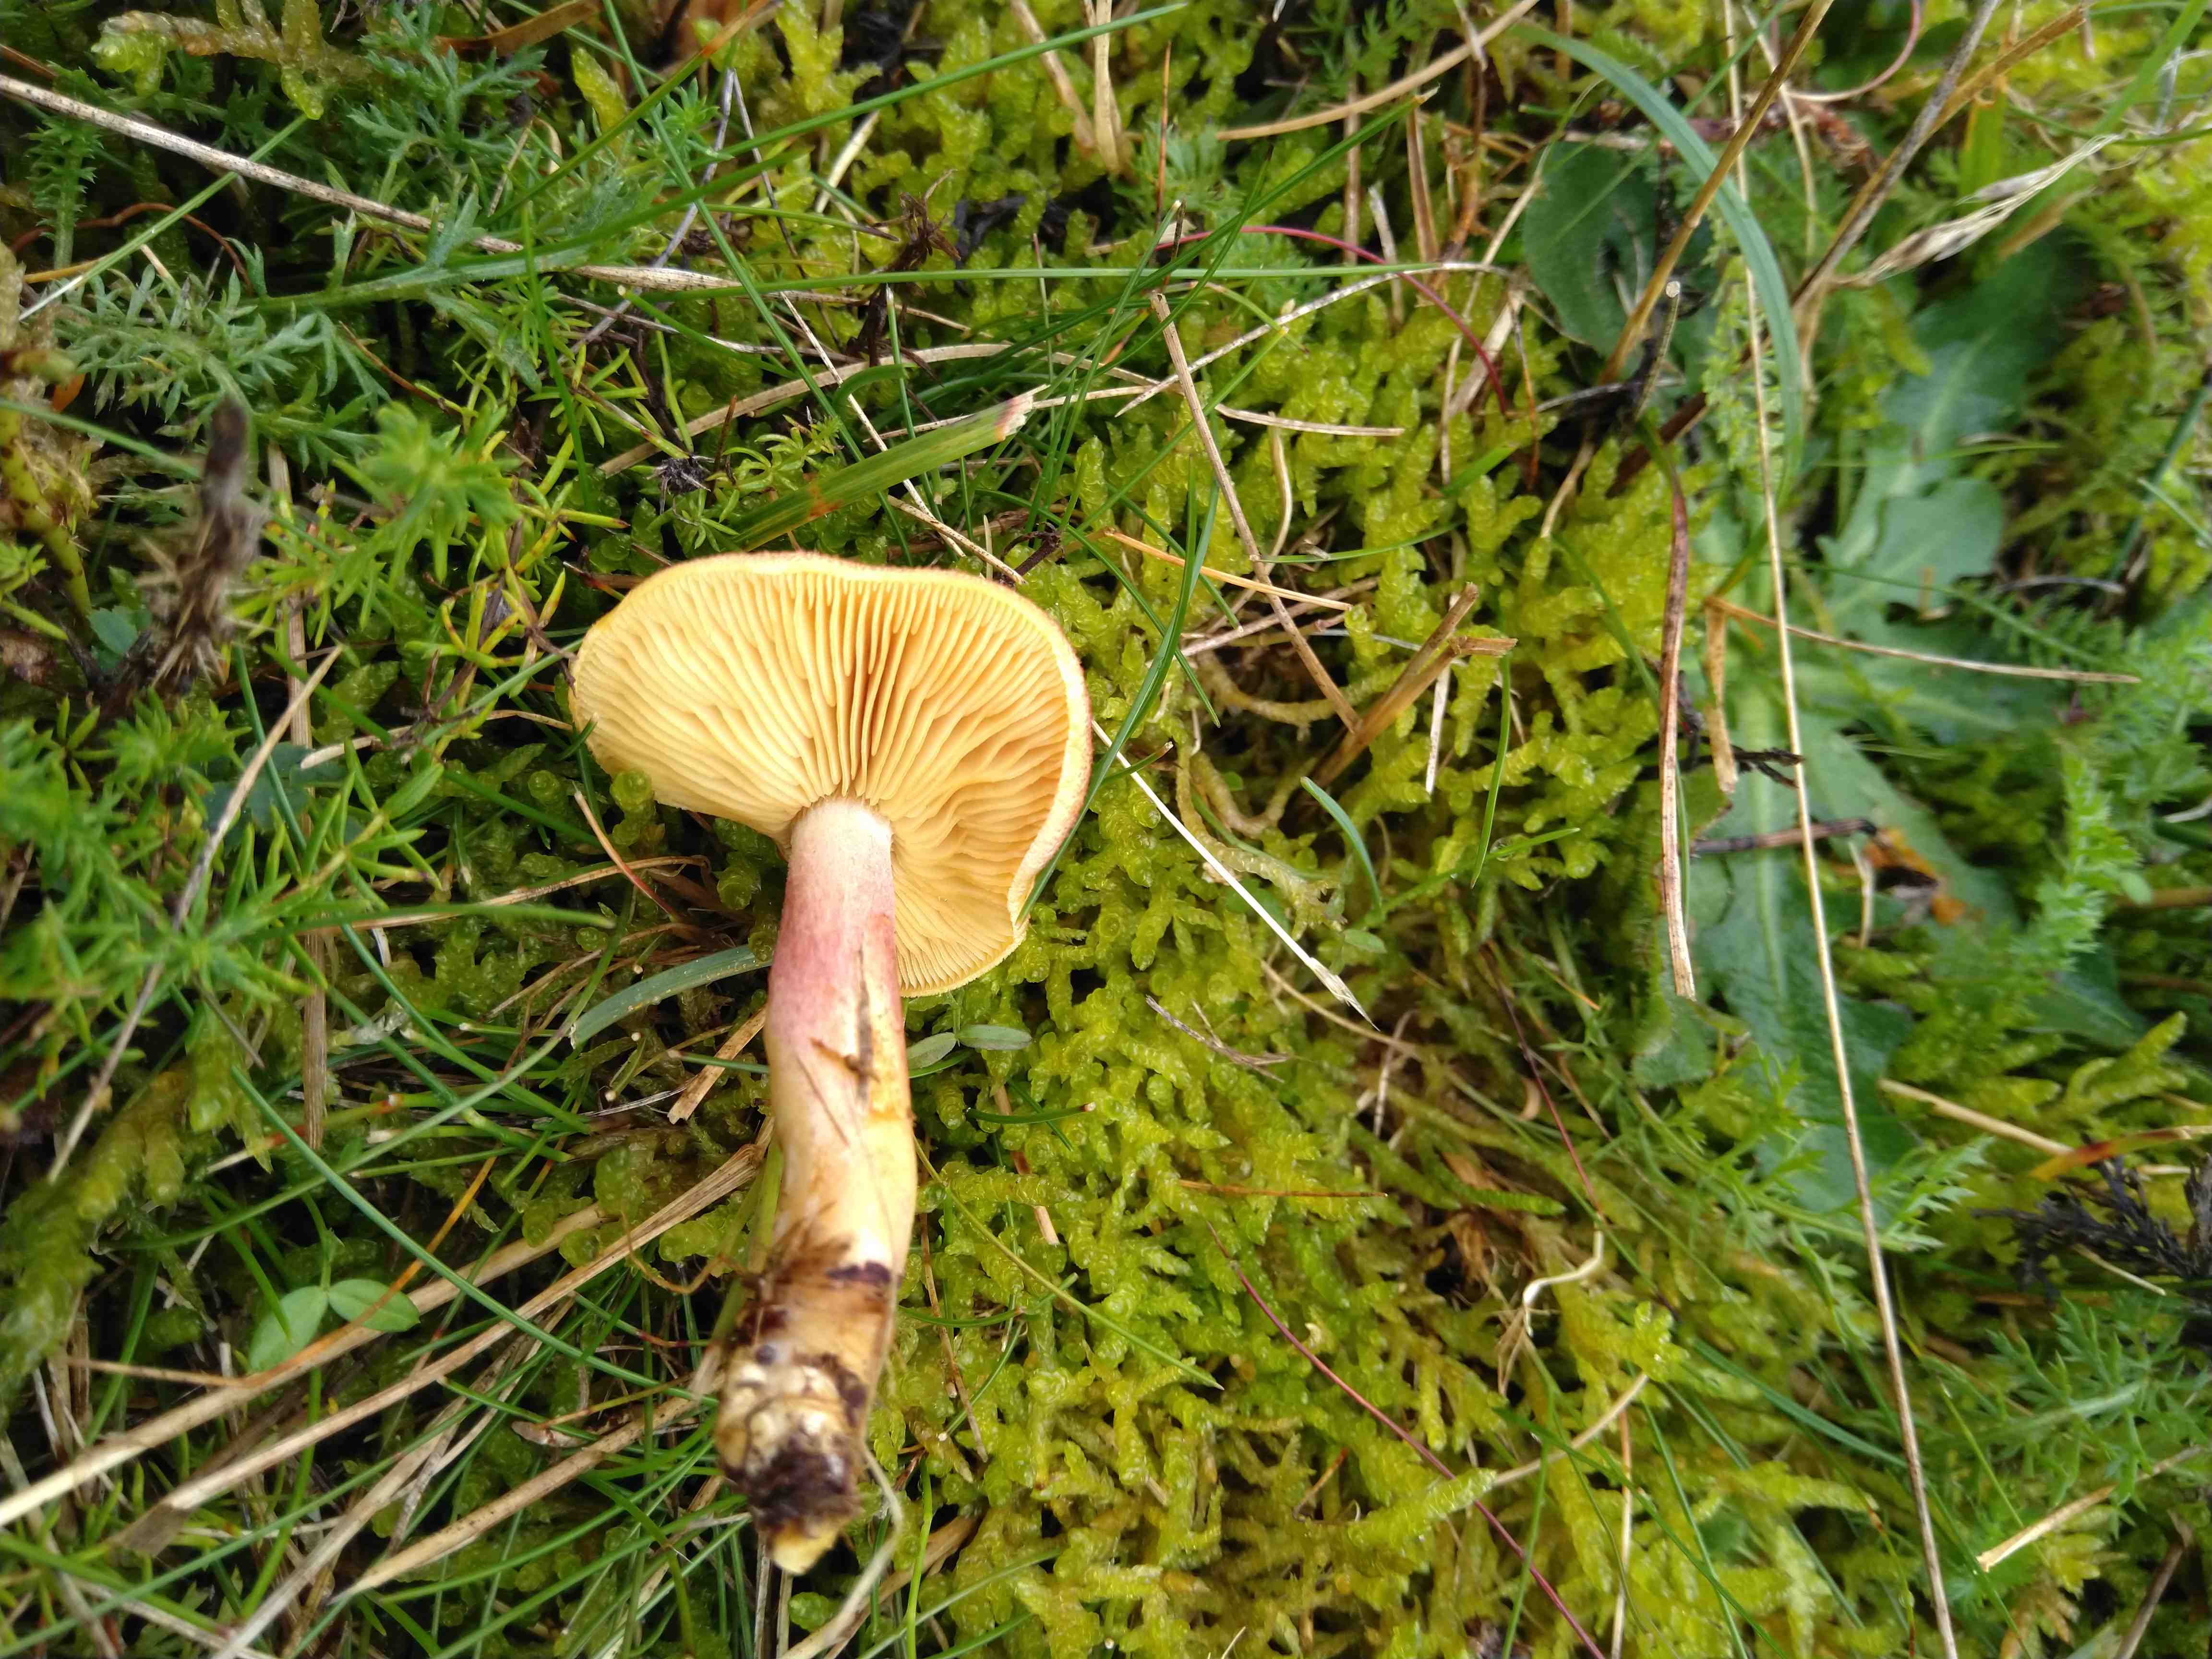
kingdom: Fungi
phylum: Basidiomycota
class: Agaricomycetes
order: Agaricales
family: Tricholomataceae
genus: Tricholomopsis
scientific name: Tricholomopsis rutilans
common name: purpur-væbnerhat
